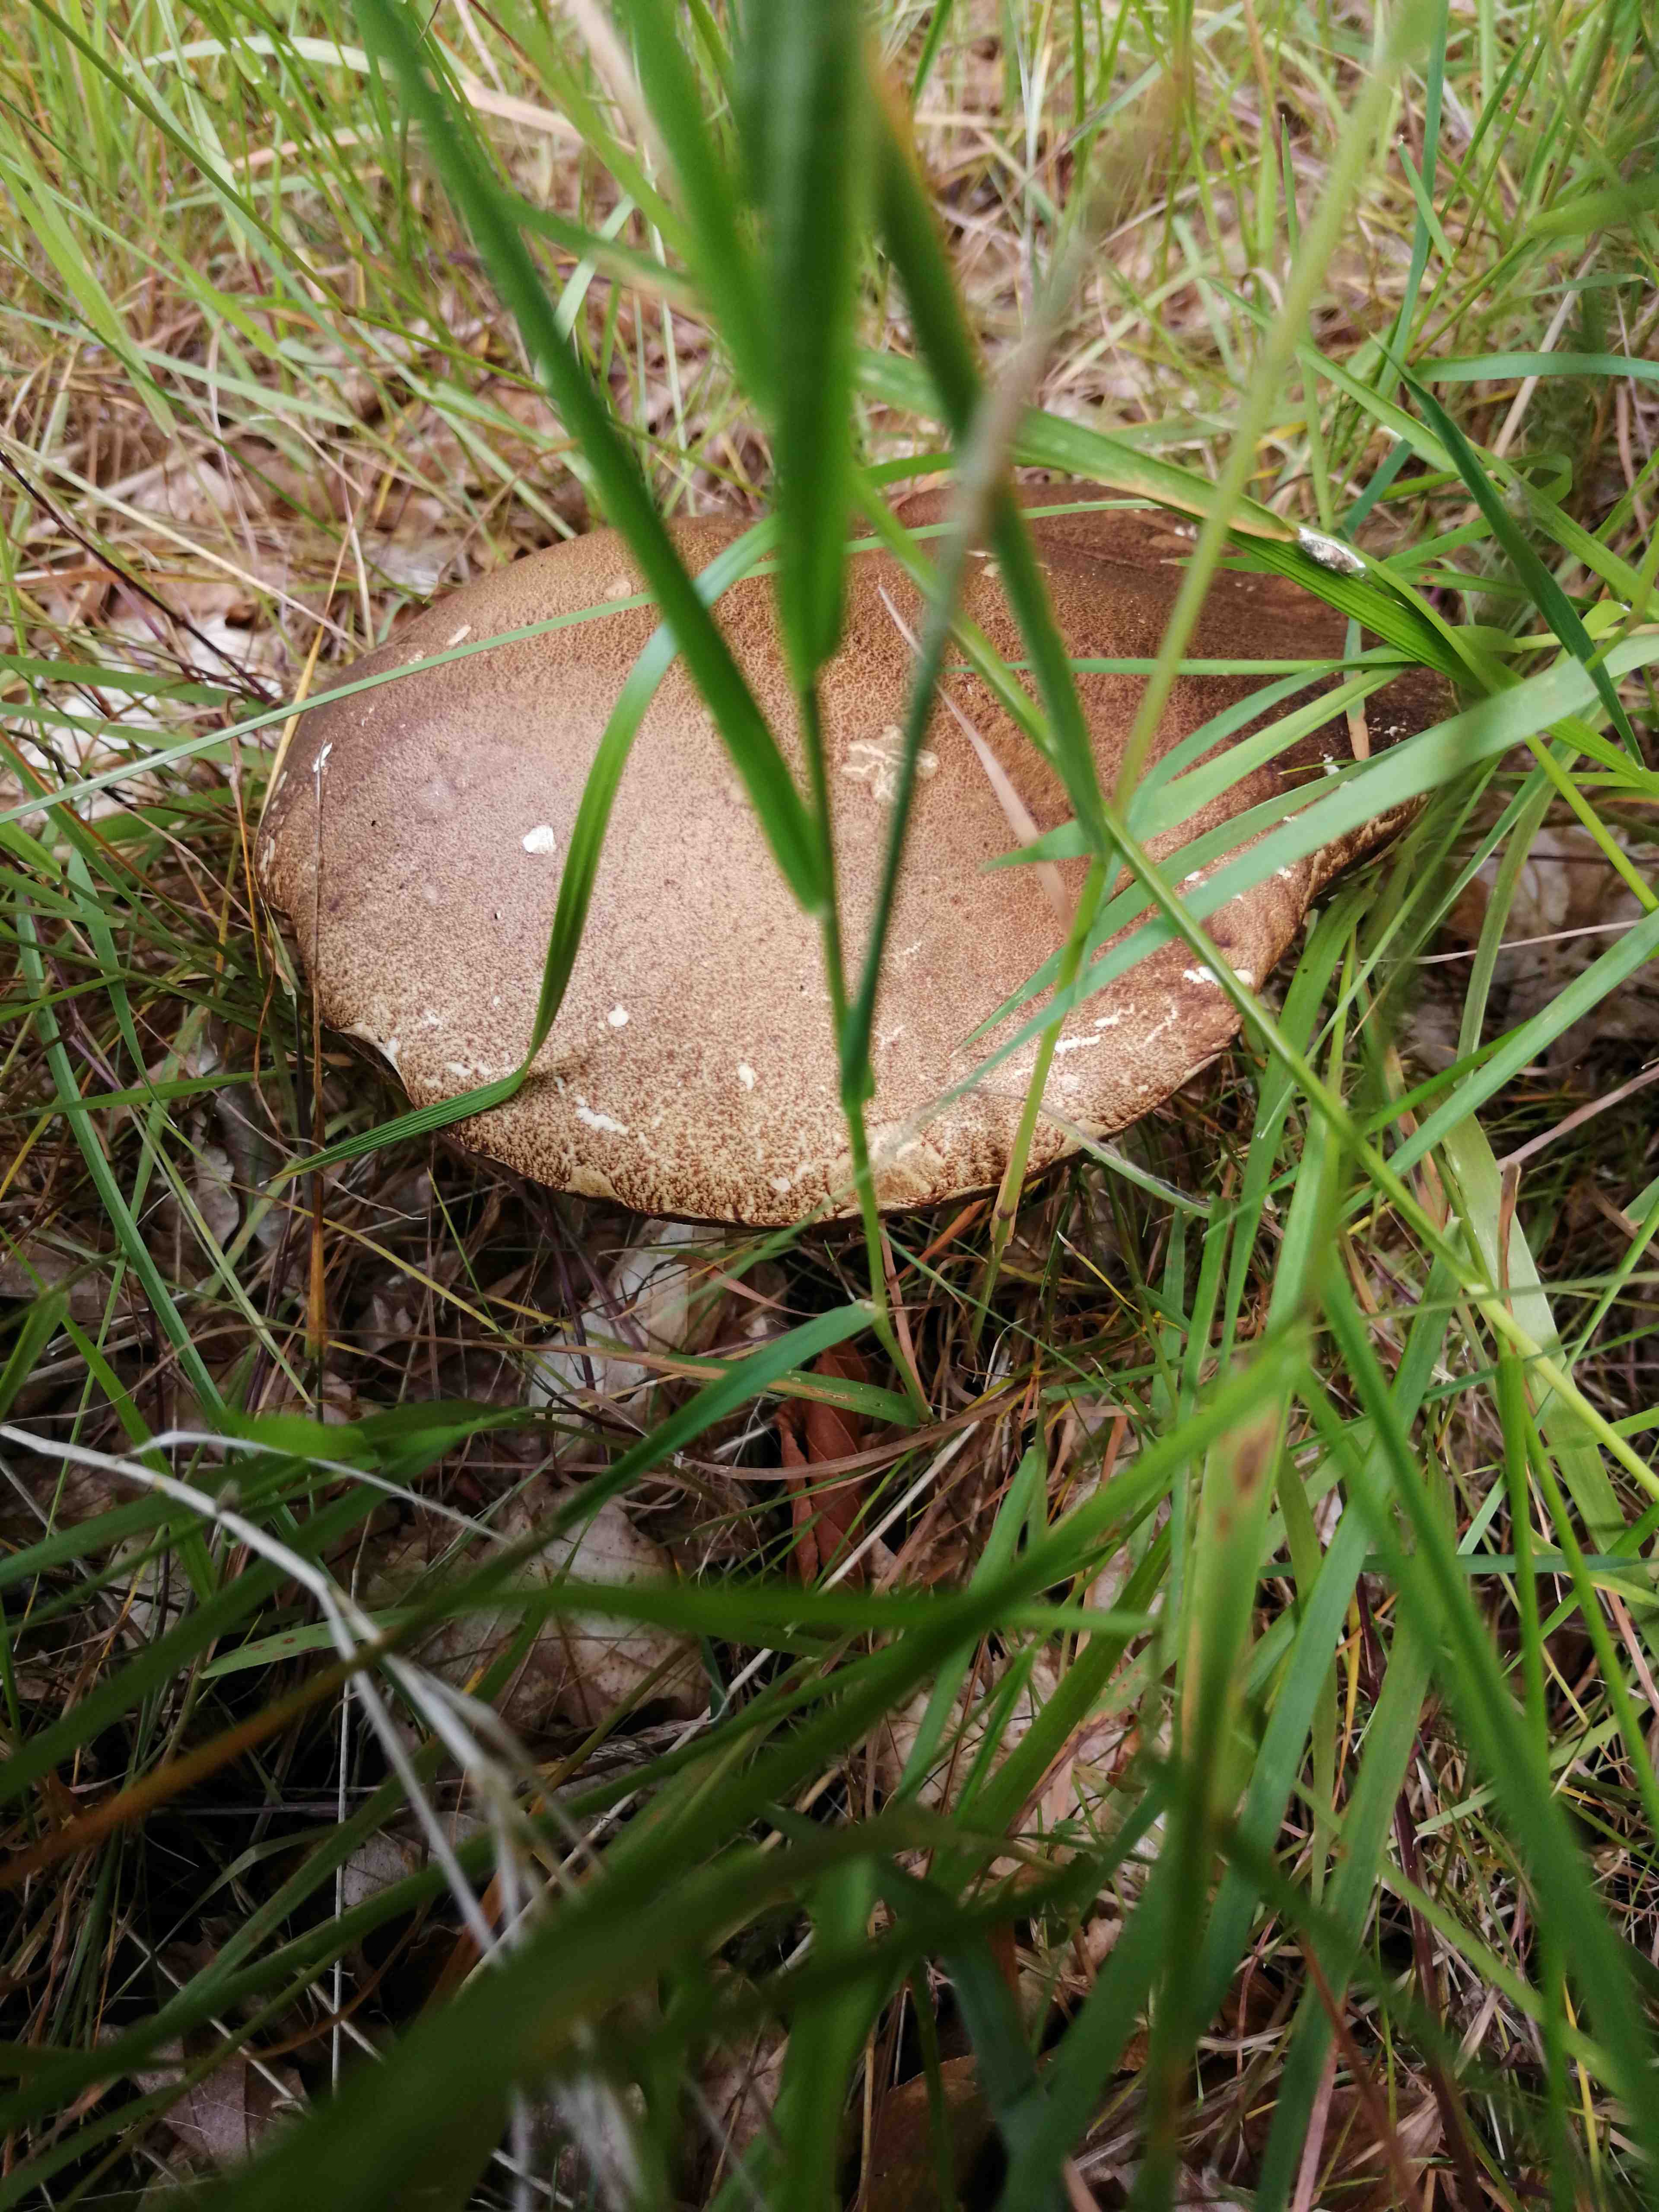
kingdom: Fungi
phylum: Basidiomycota
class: Agaricomycetes
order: Boletales
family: Boletaceae
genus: Boletus
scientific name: Boletus
